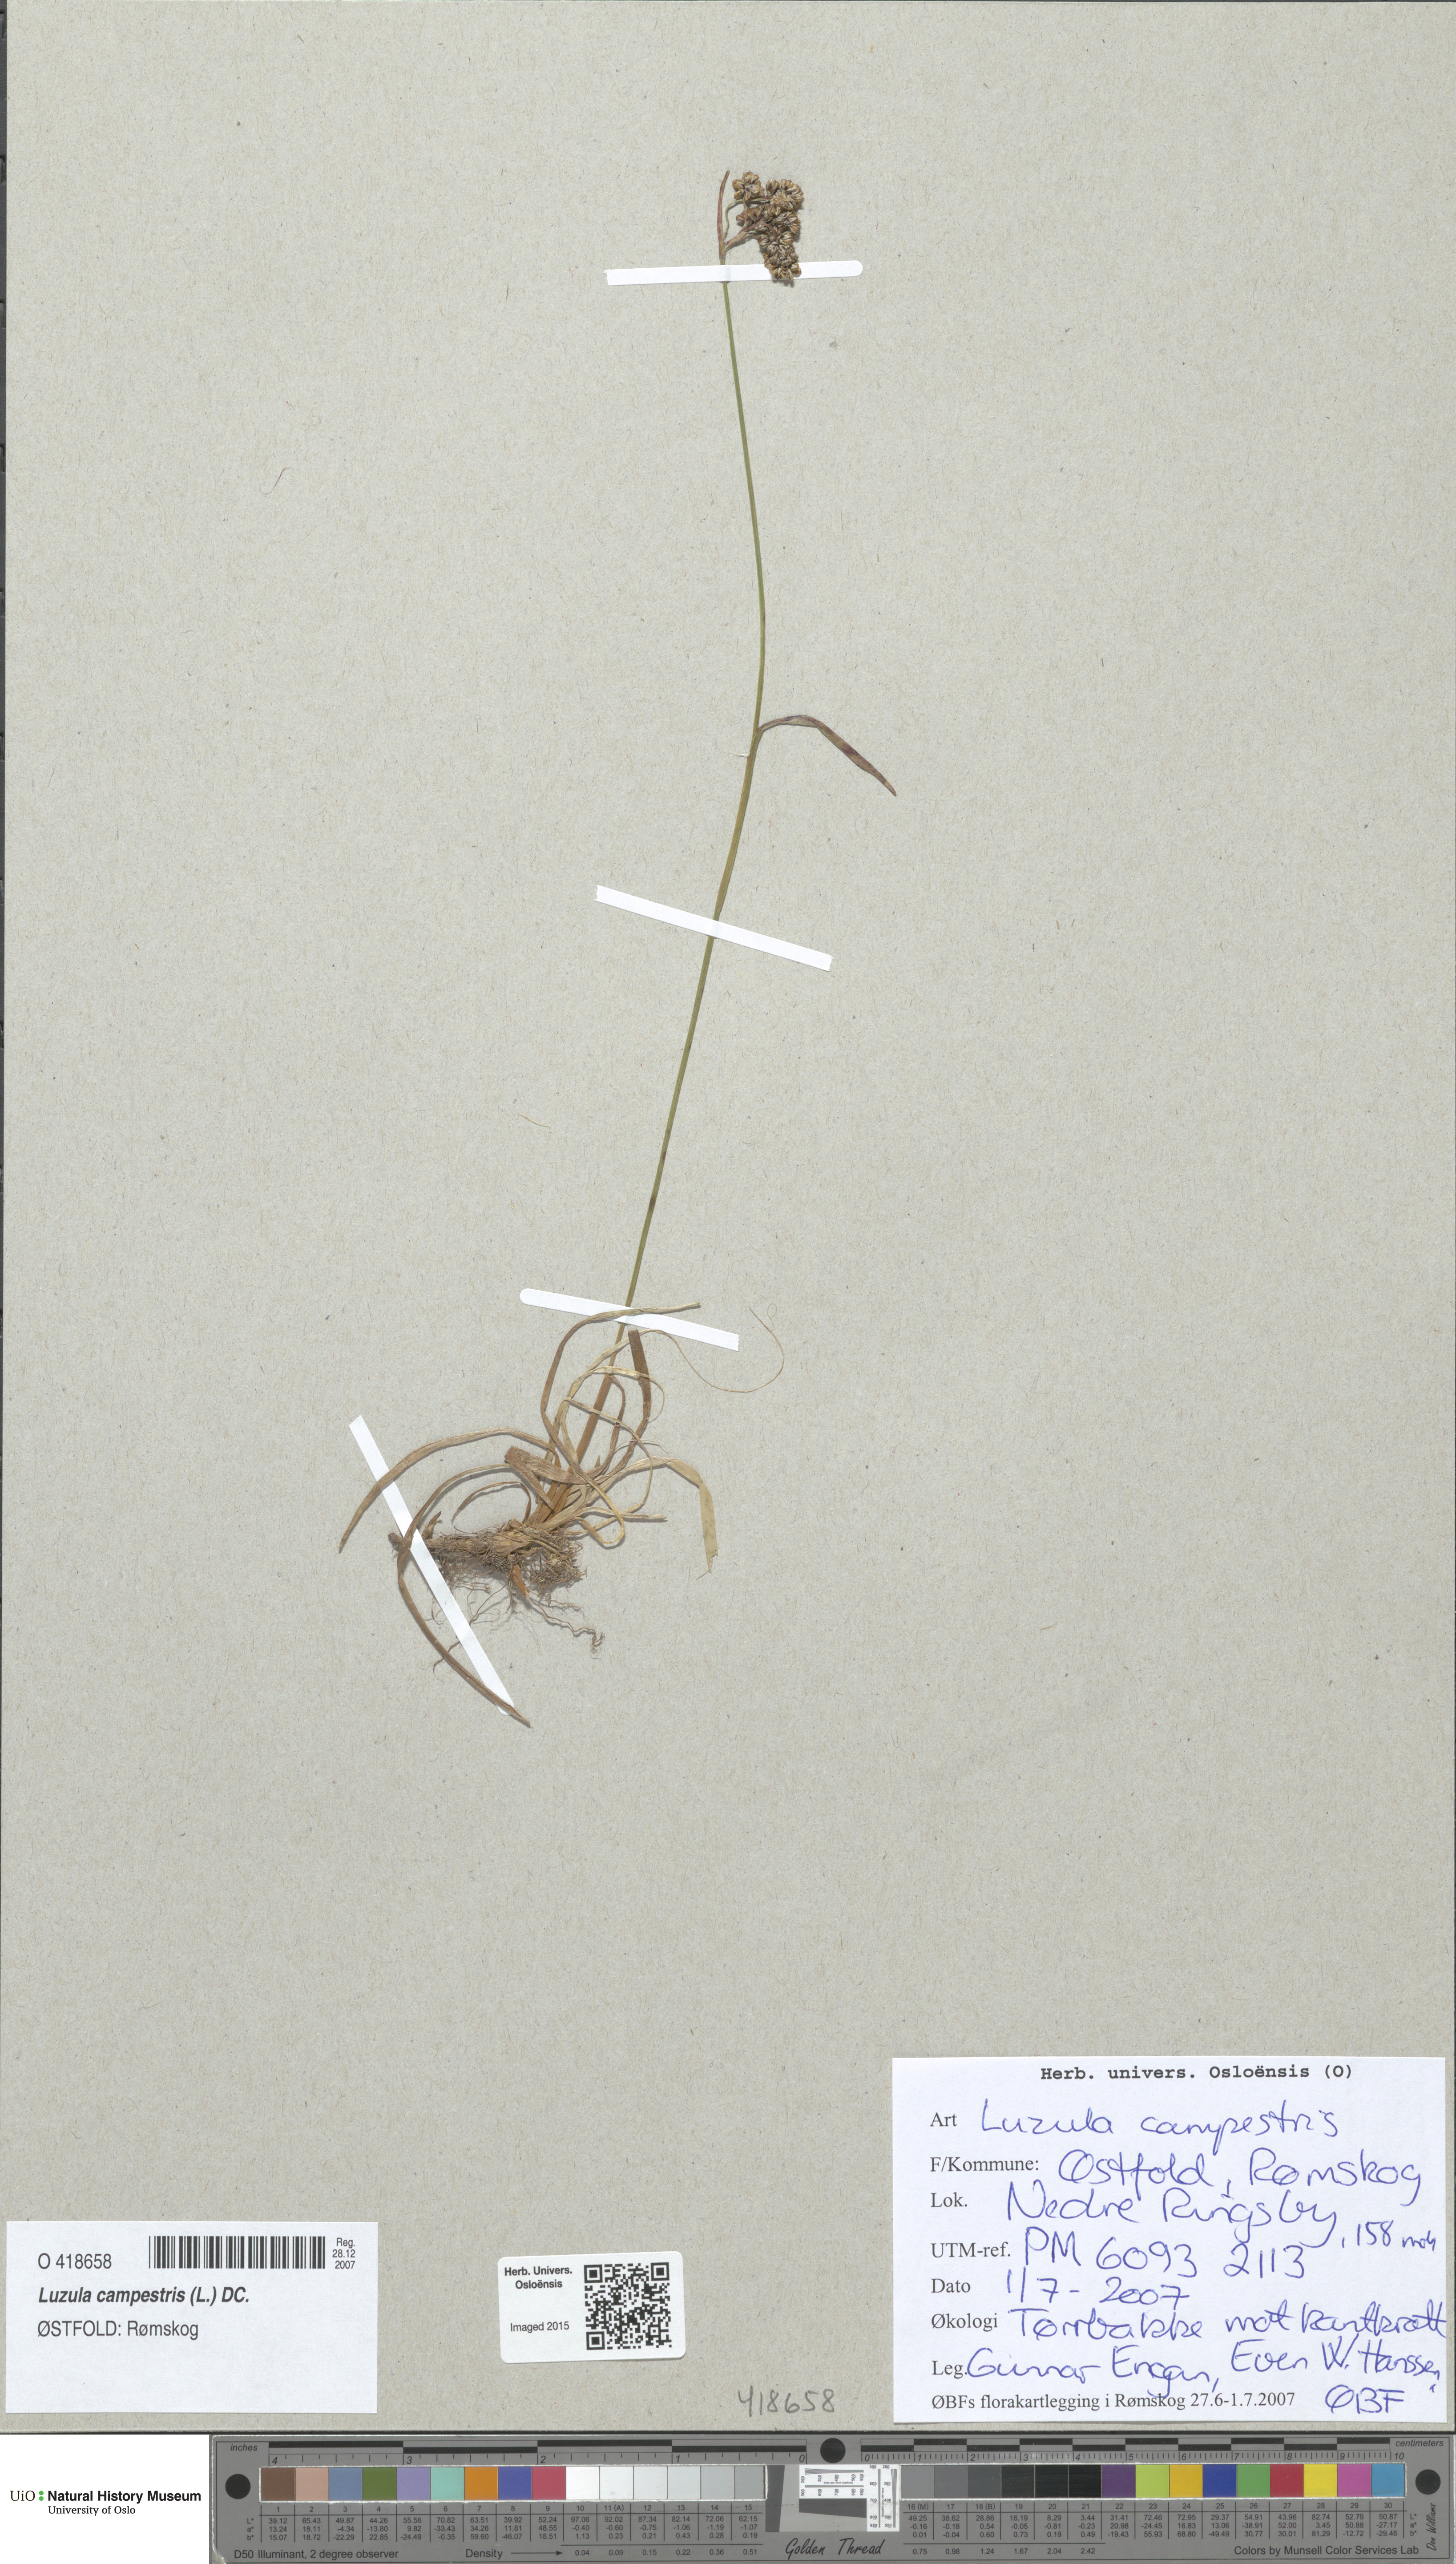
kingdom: Plantae
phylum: Tracheophyta
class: Liliopsida
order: Poales
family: Juncaceae
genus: Luzula
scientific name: Luzula campestris
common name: Field wood-rush
